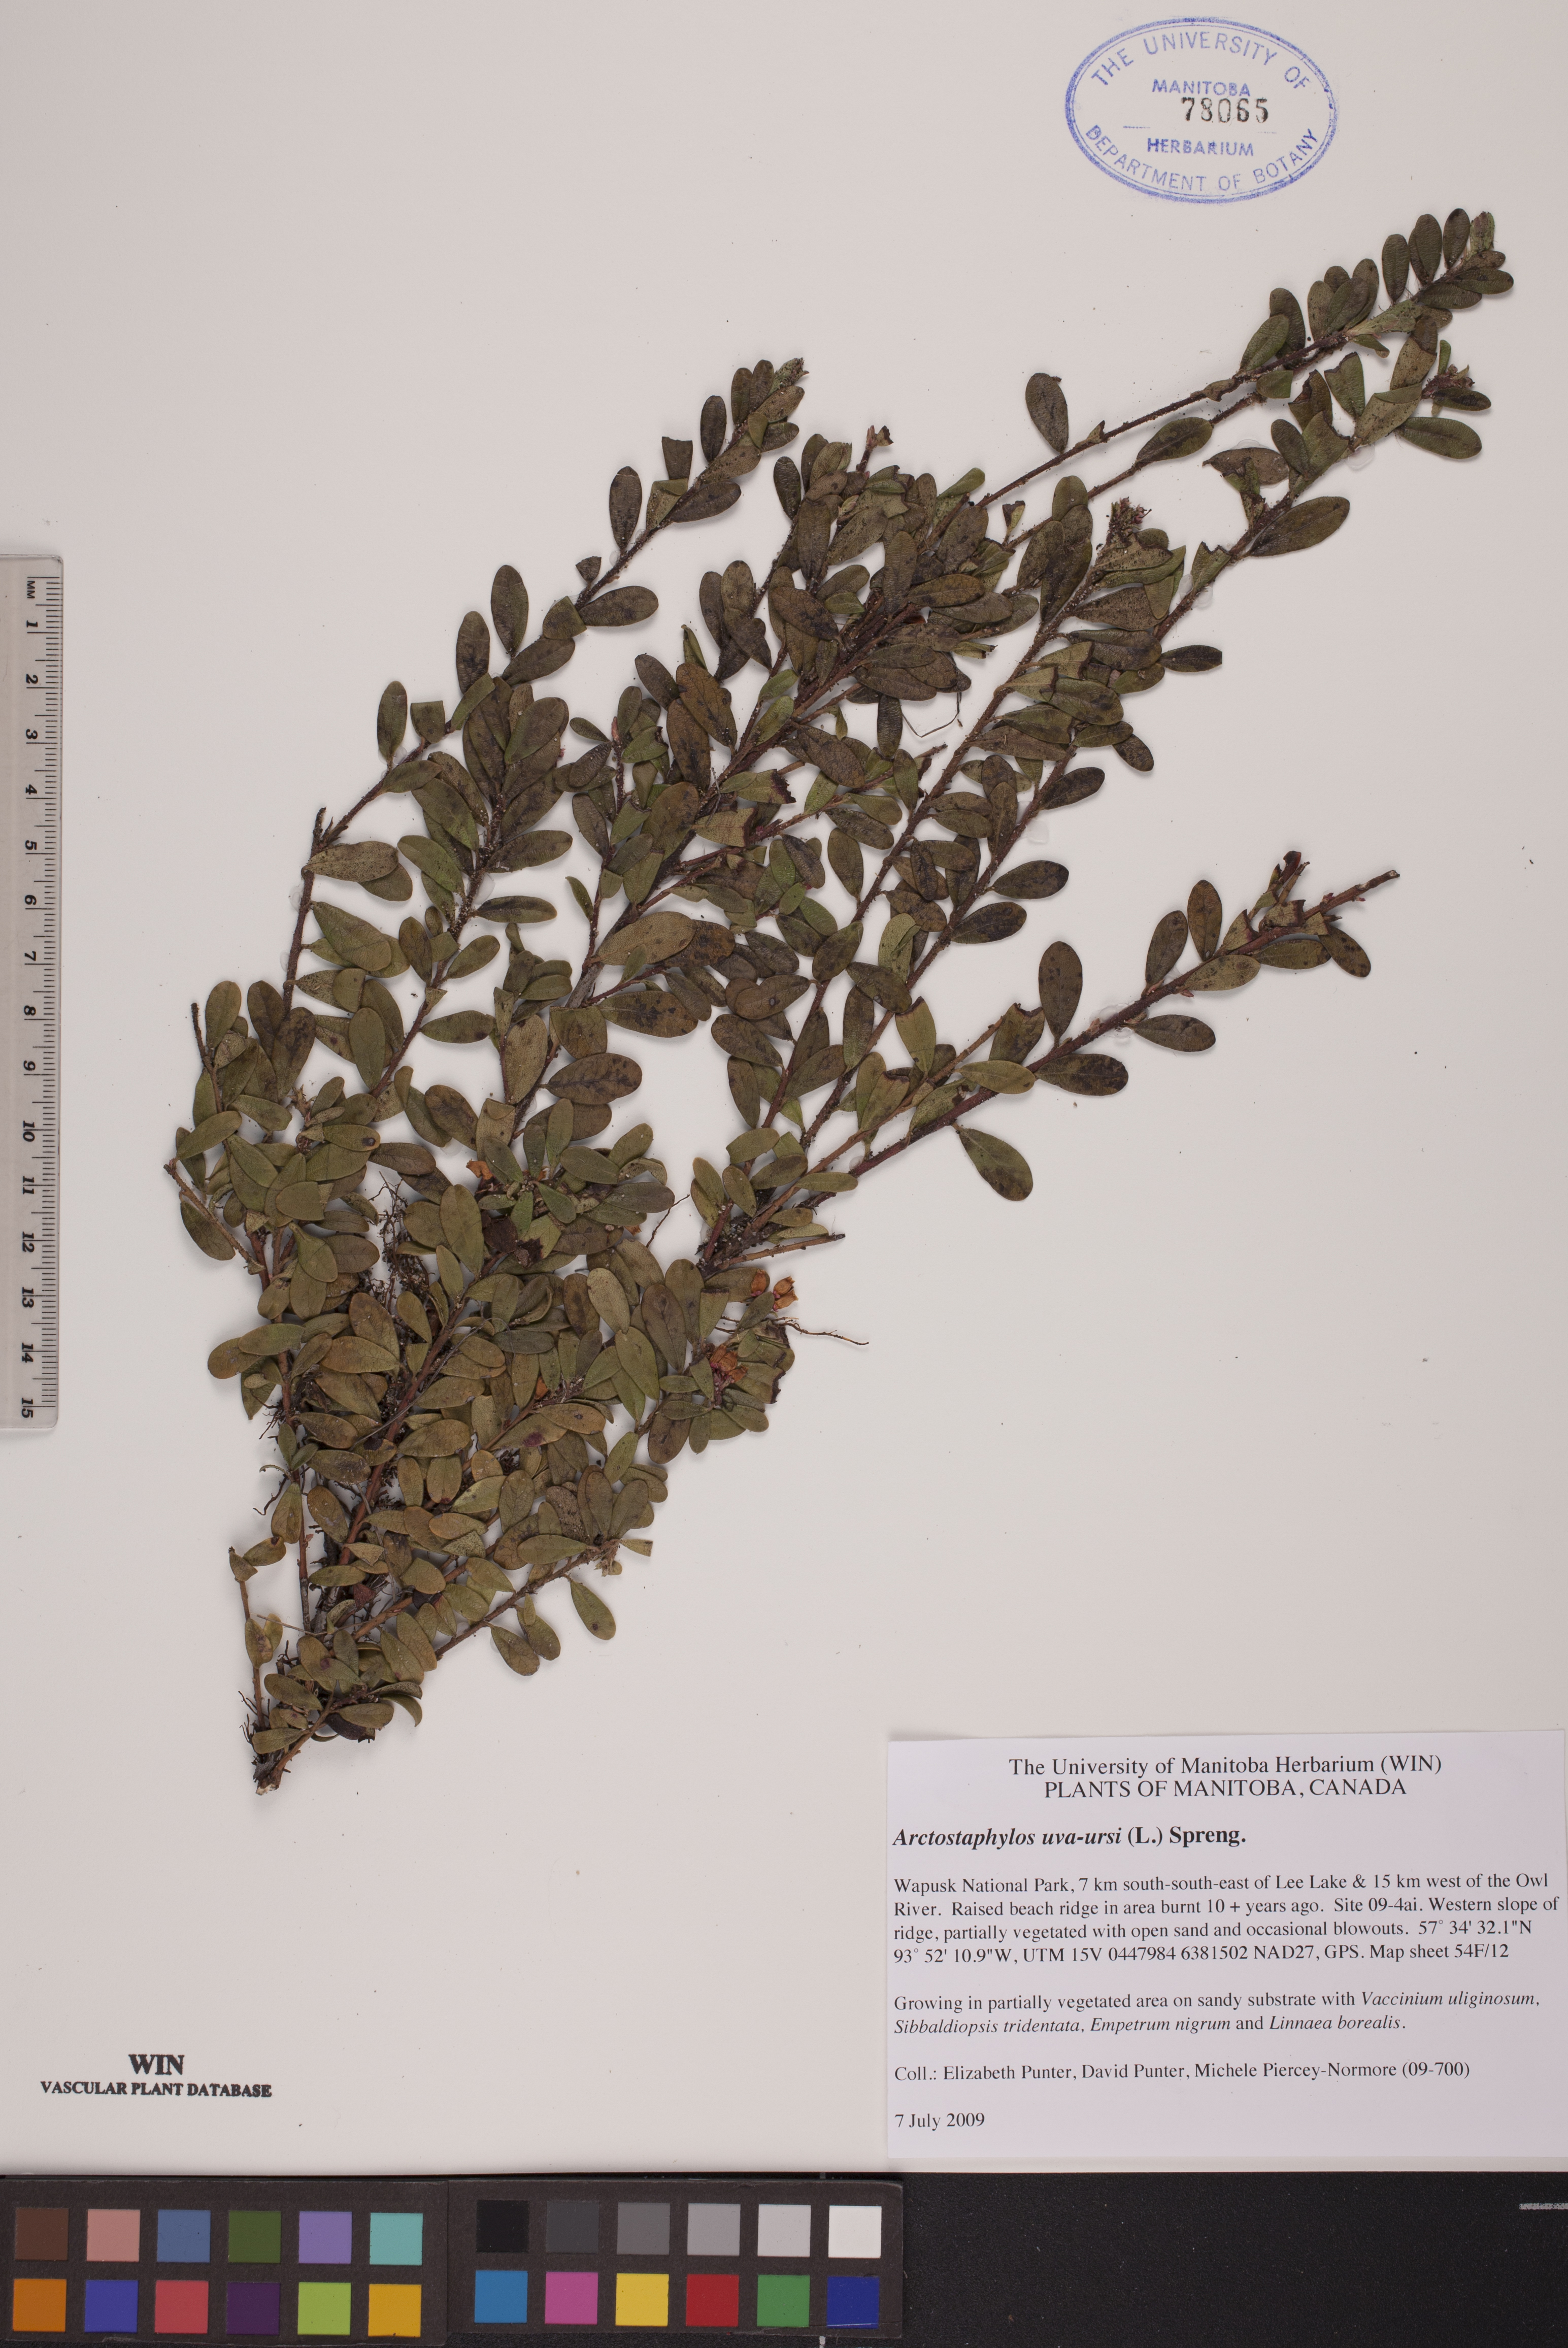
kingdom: Plantae
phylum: Tracheophyta
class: Magnoliopsida
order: Ericales
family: Ericaceae
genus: Arctostaphylos
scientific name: Arctostaphylos uva-ursi
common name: Bearberry
